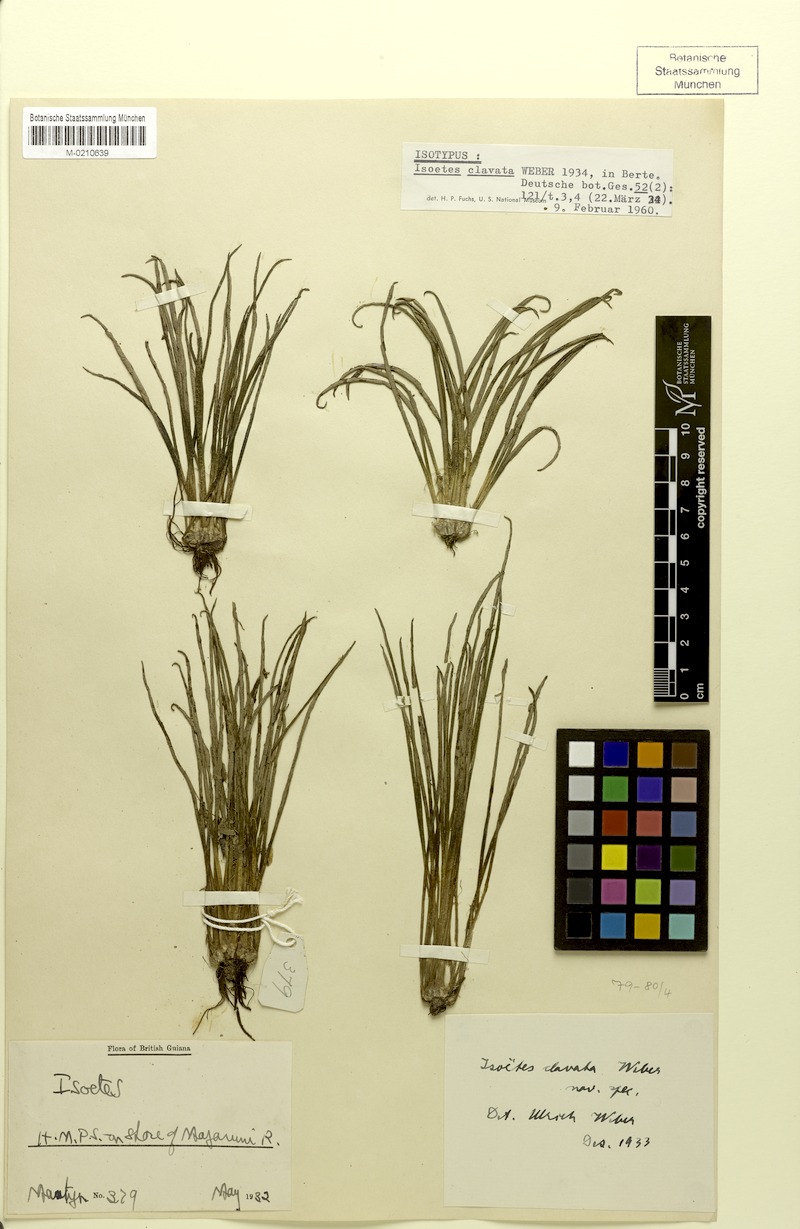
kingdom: Plantae
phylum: Tracheophyta
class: Lycopodiopsida
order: Isoetales
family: Isoetaceae
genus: Isoetes
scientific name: Isoetes ovata
